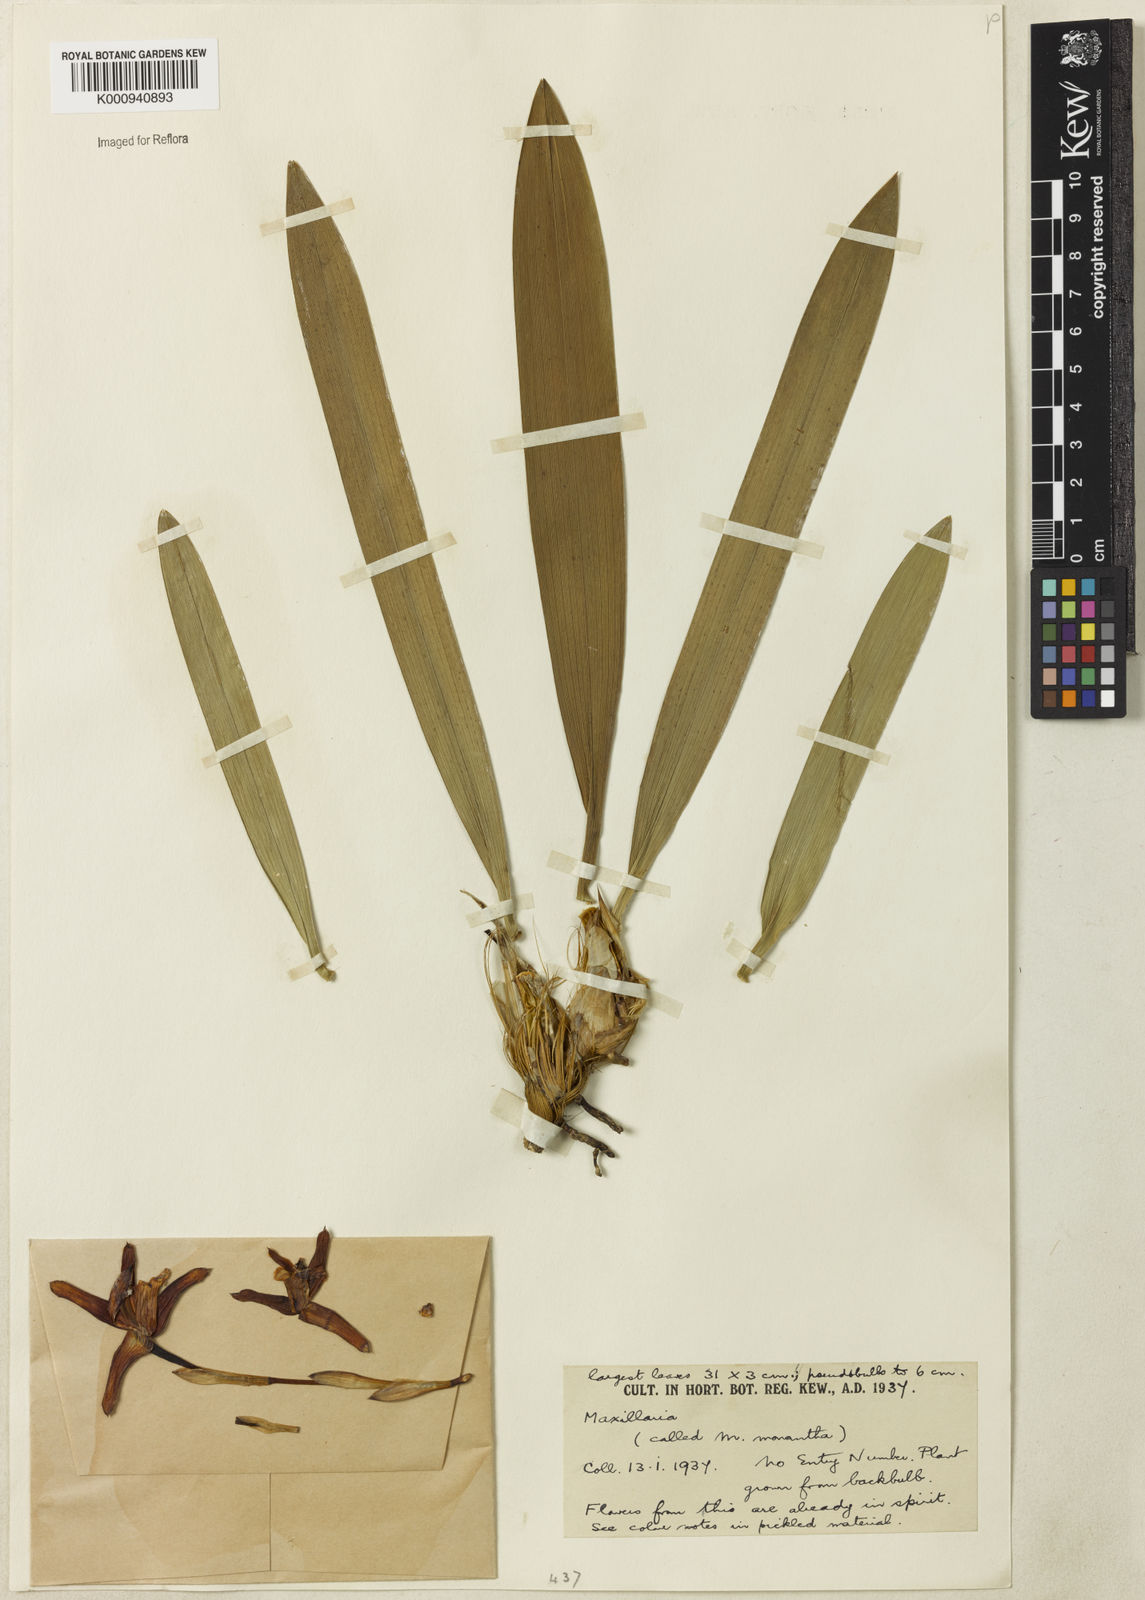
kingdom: Plantae
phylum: Tracheophyta
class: Liliopsida
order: Asparagales
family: Orchidaceae
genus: Maxillaria
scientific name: Maxillaria monantha
